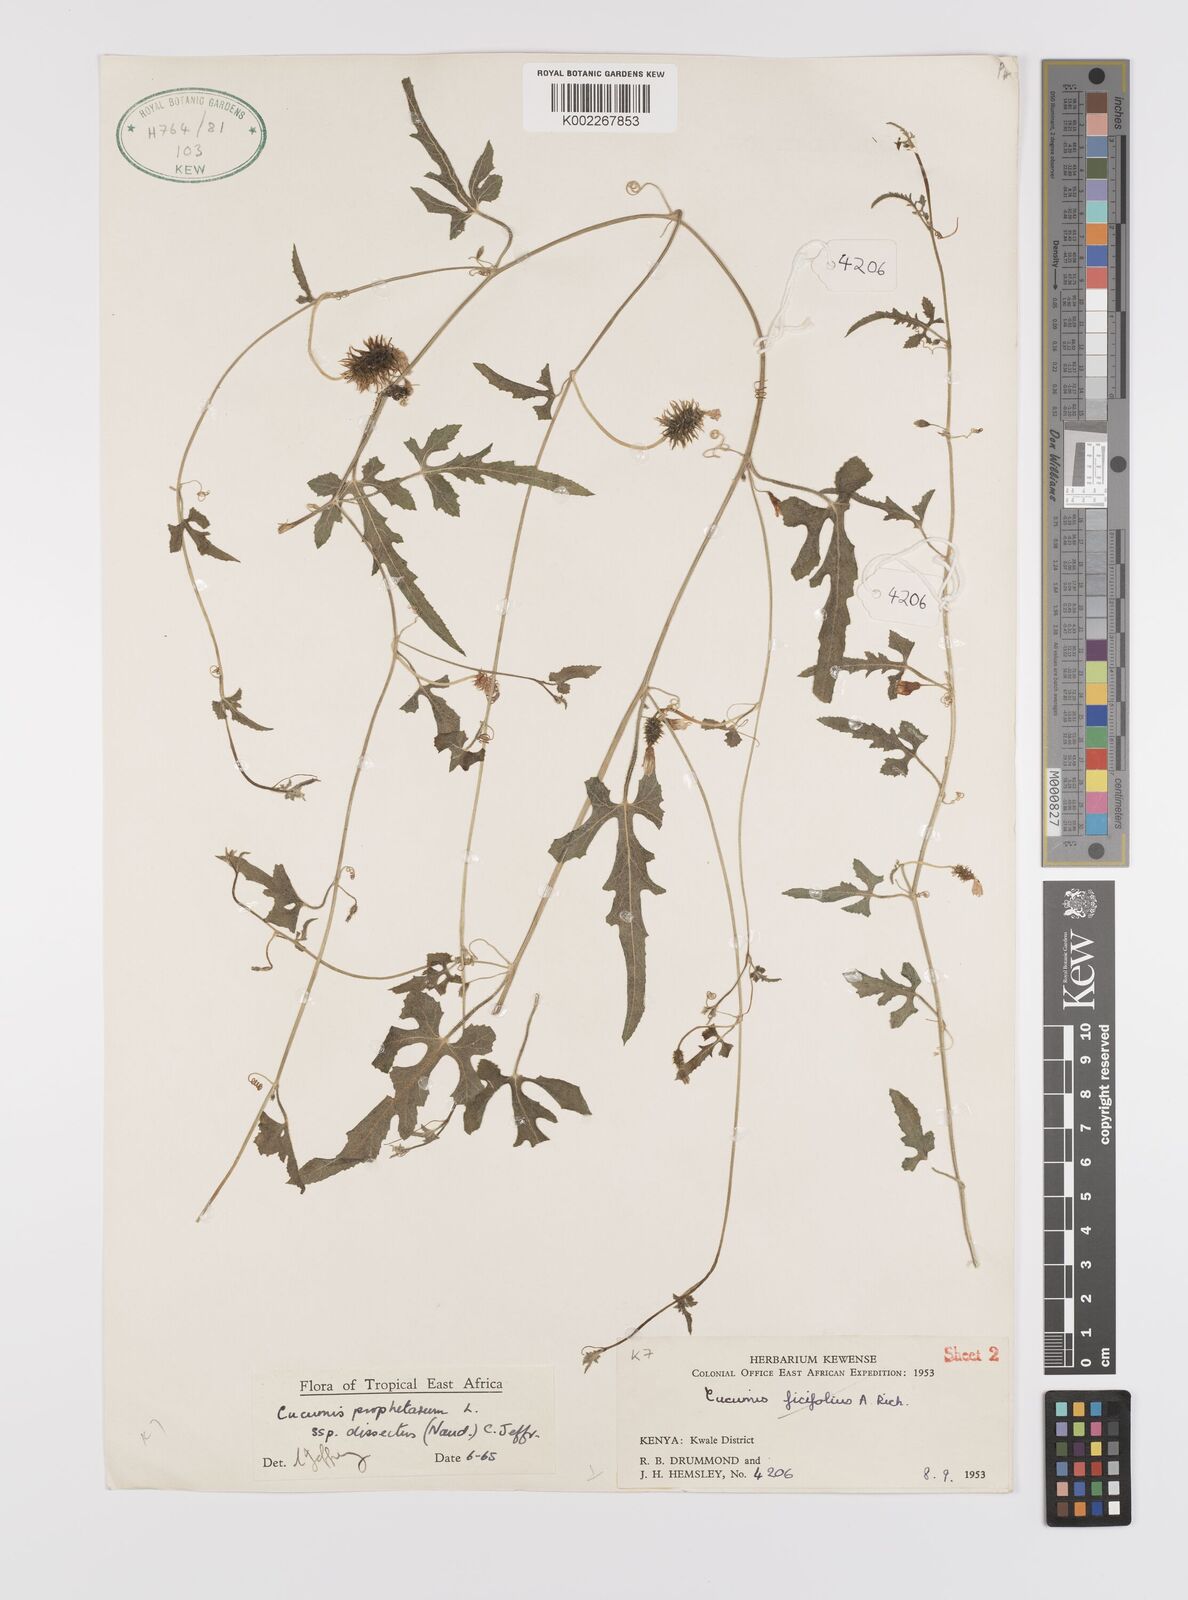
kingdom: Plantae
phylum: Tracheophyta
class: Magnoliopsida
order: Cucurbitales
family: Cucurbitaceae
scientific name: Cucurbitaceae
